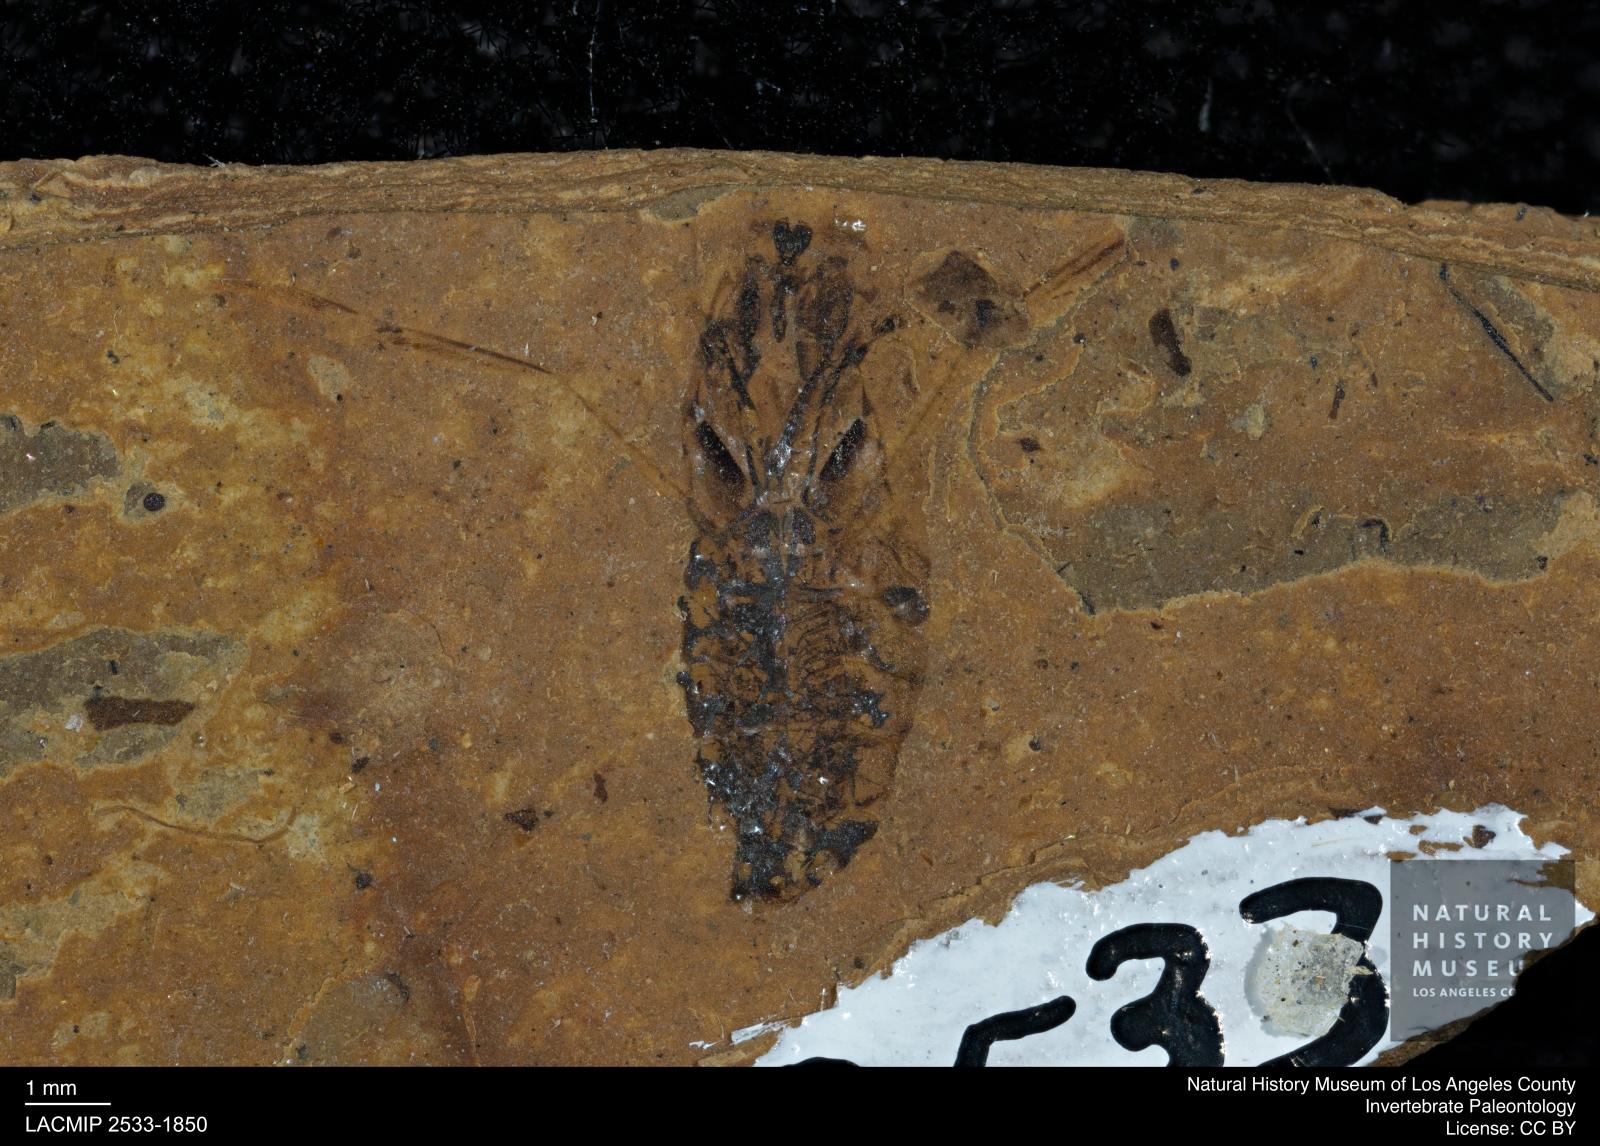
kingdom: Animalia
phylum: Arthropoda
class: Insecta
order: Hemiptera
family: Notonectidae
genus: Notonecta
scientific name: Notonecta
